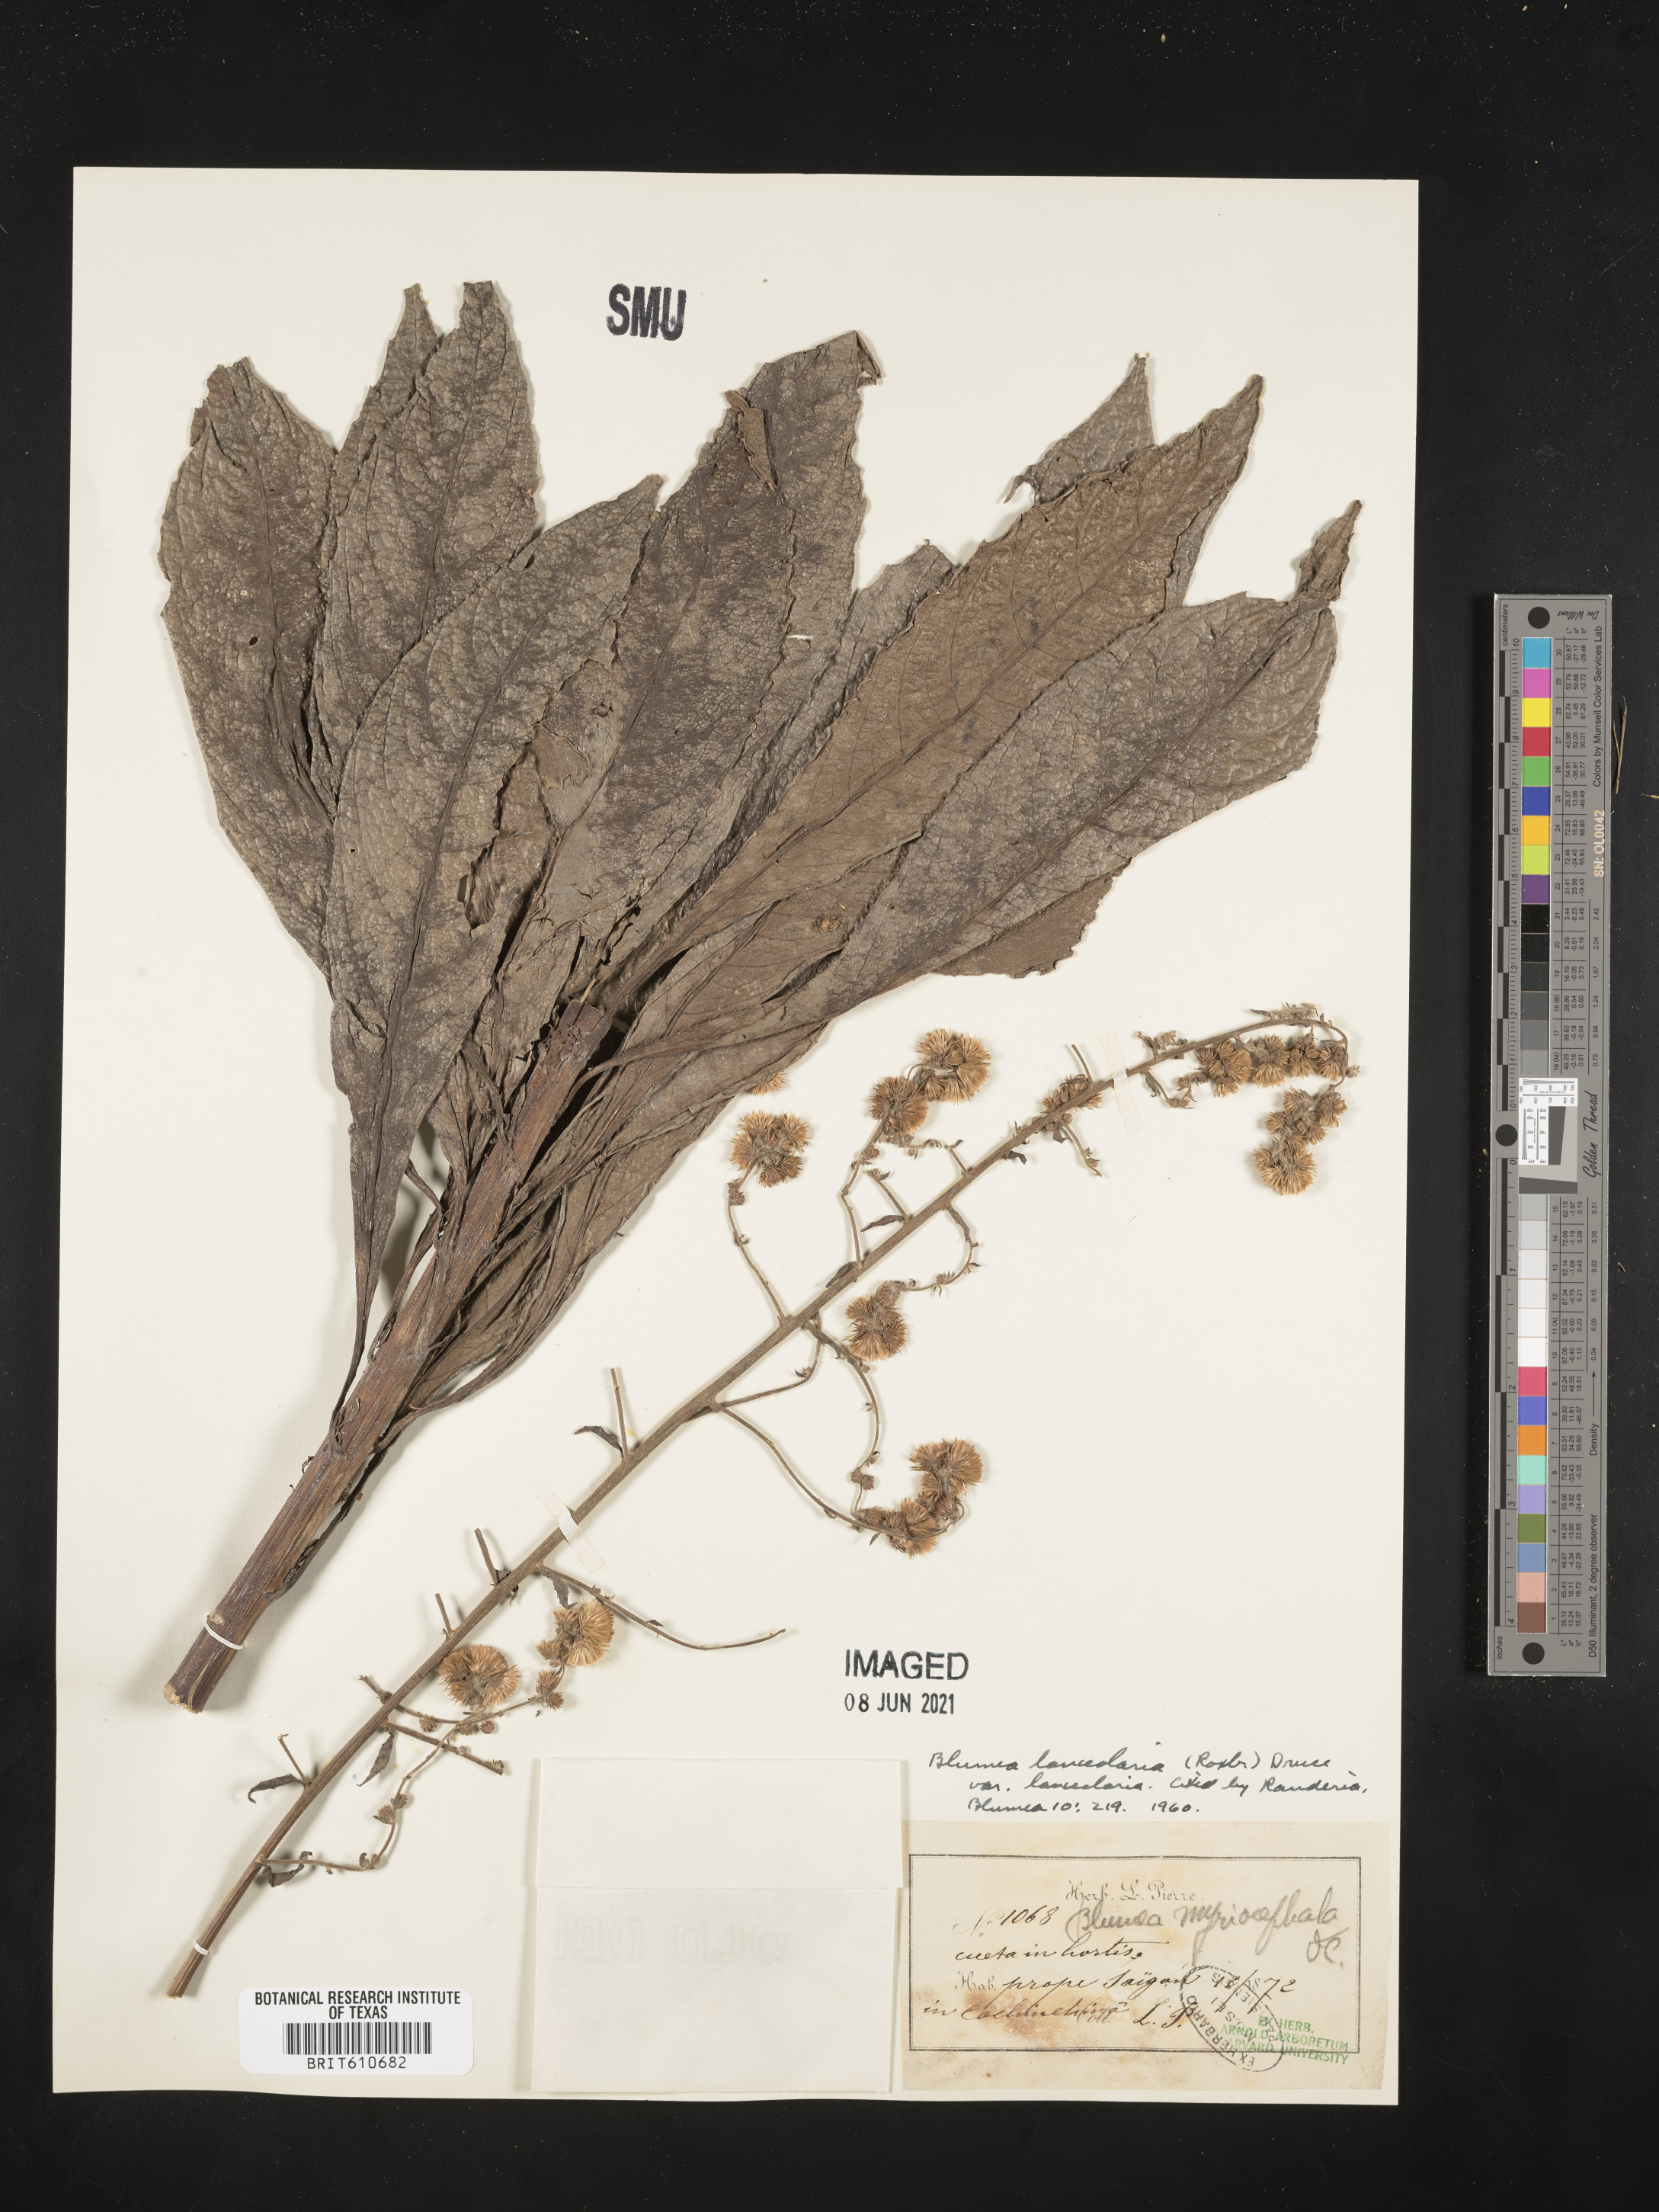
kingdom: Plantae
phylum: Tracheophyta
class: Magnoliopsida
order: Asterales
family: Asteraceae
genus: Blumea
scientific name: Blumea lanceolaria
